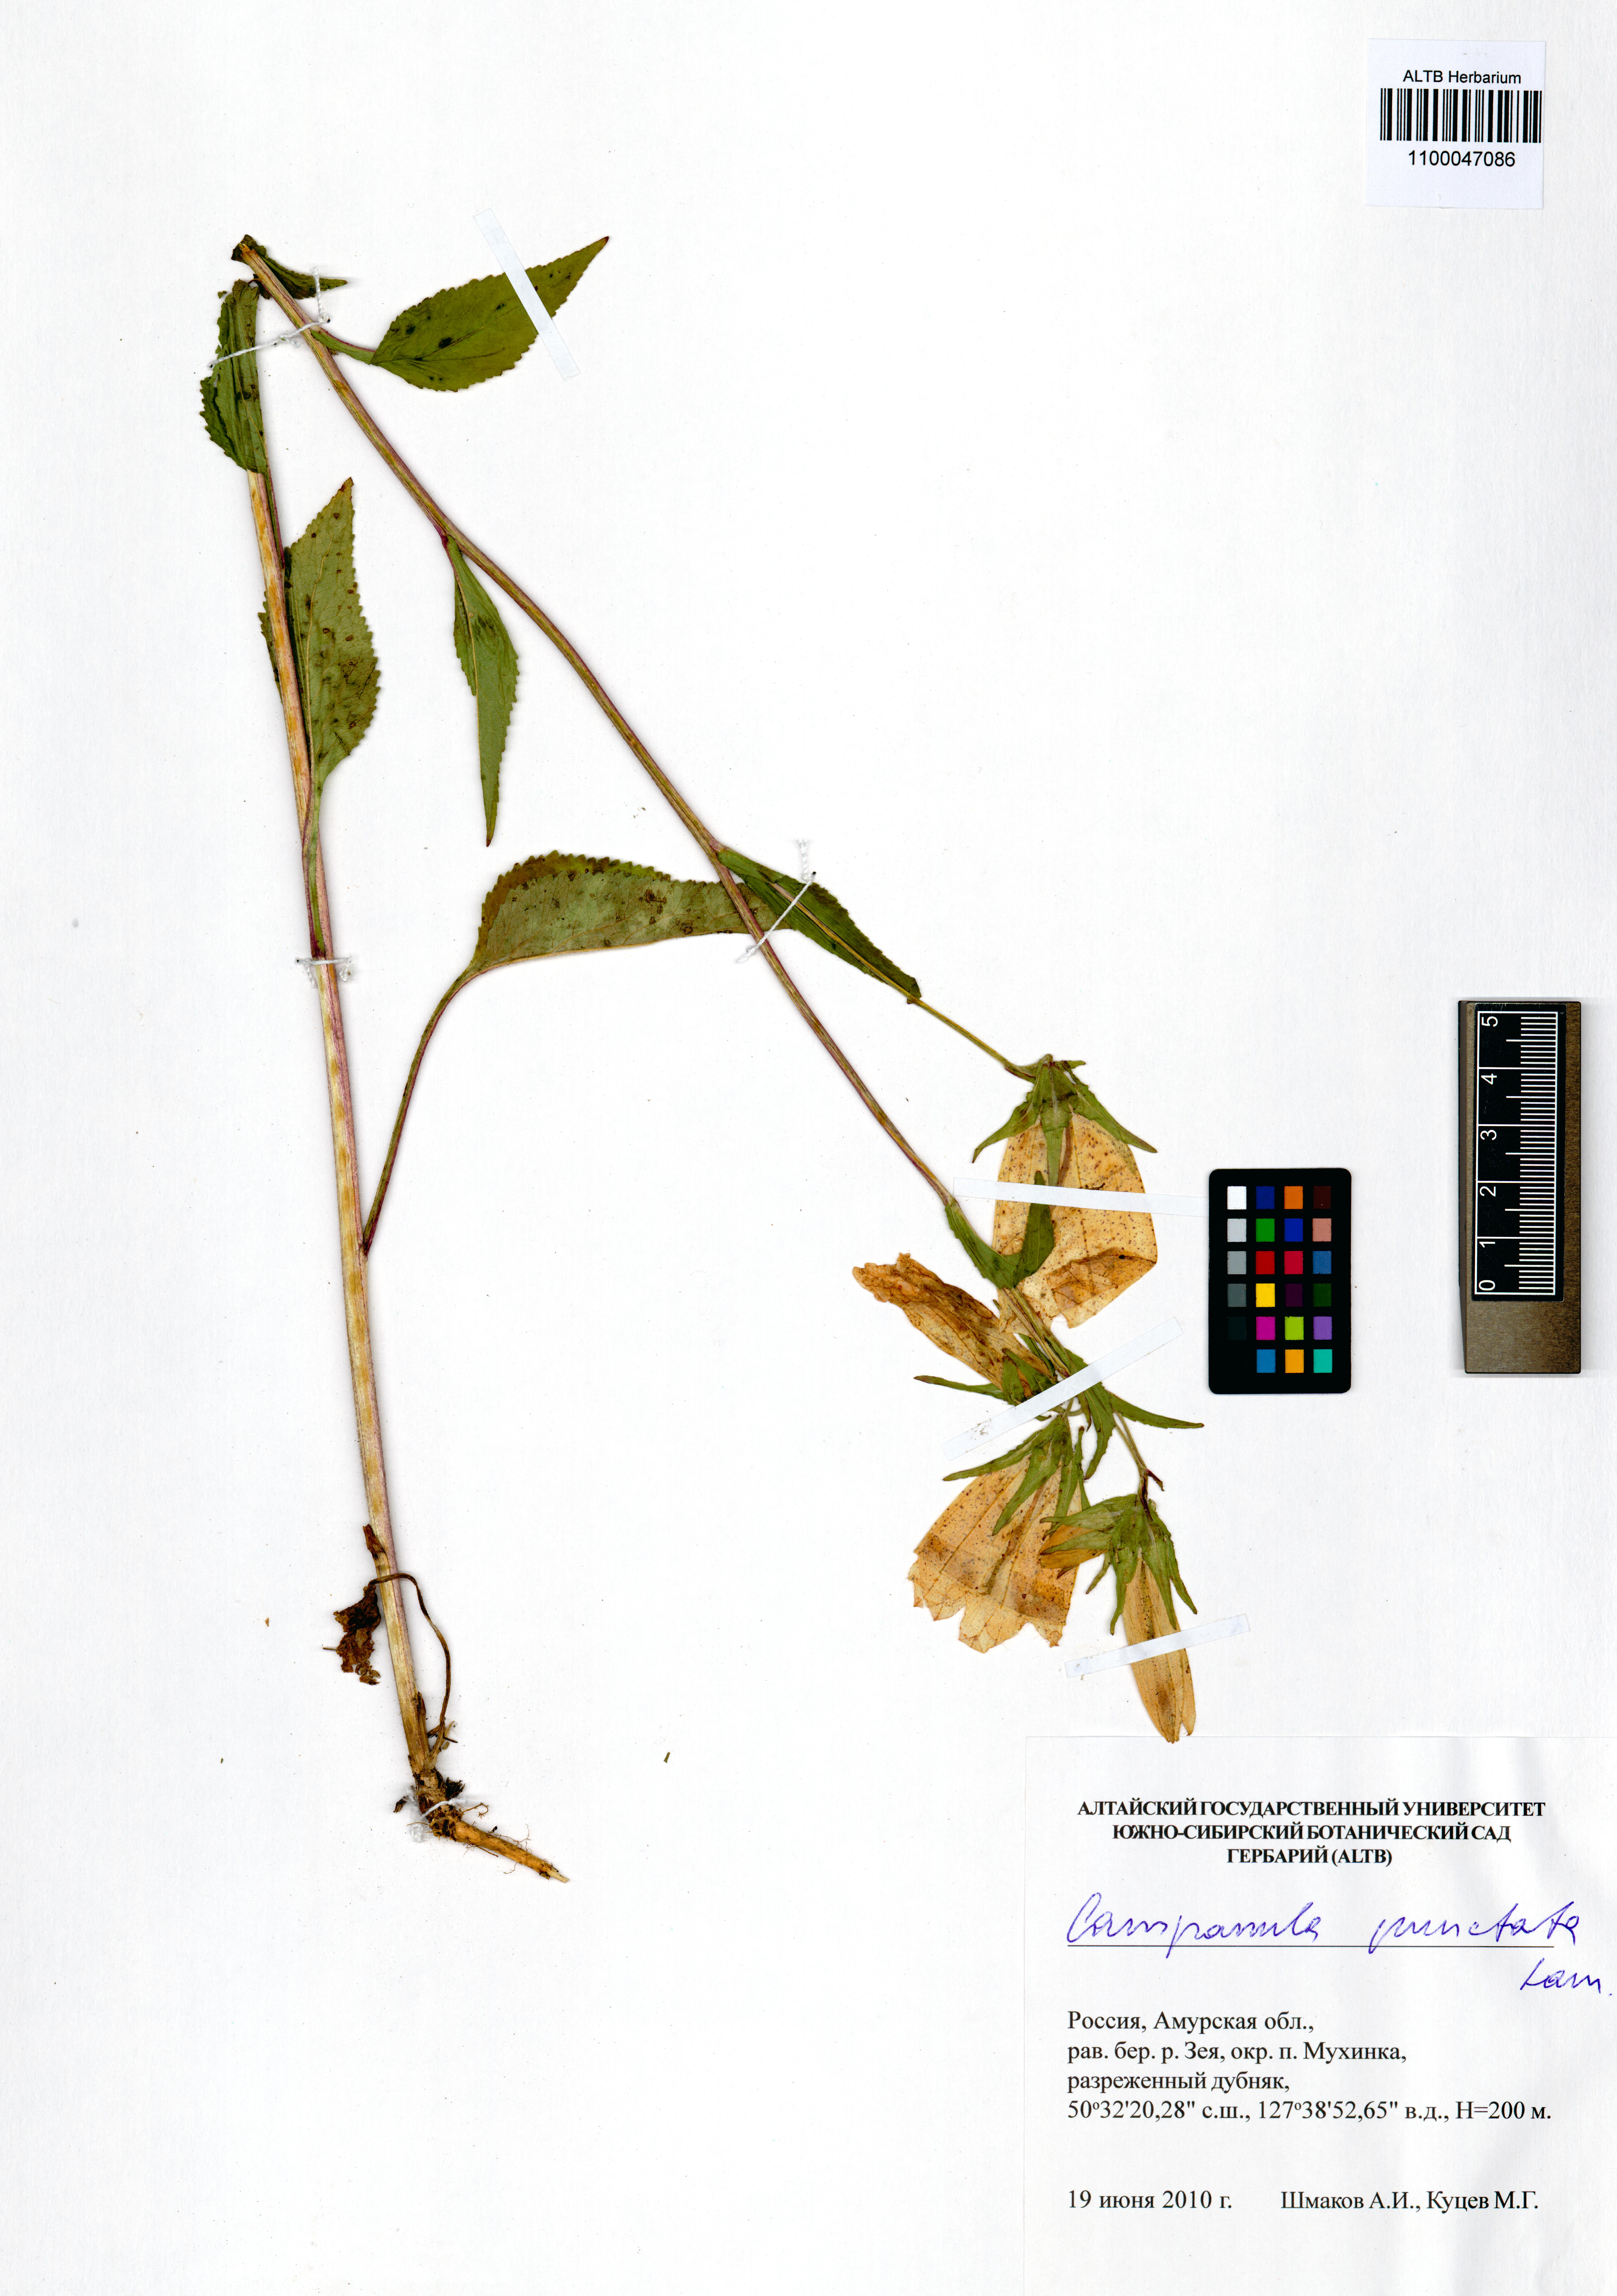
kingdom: Plantae
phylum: Tracheophyta
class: Magnoliopsida
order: Asterales
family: Campanulaceae
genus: Campanula
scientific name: Campanula punctata
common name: Spotted bellflower
